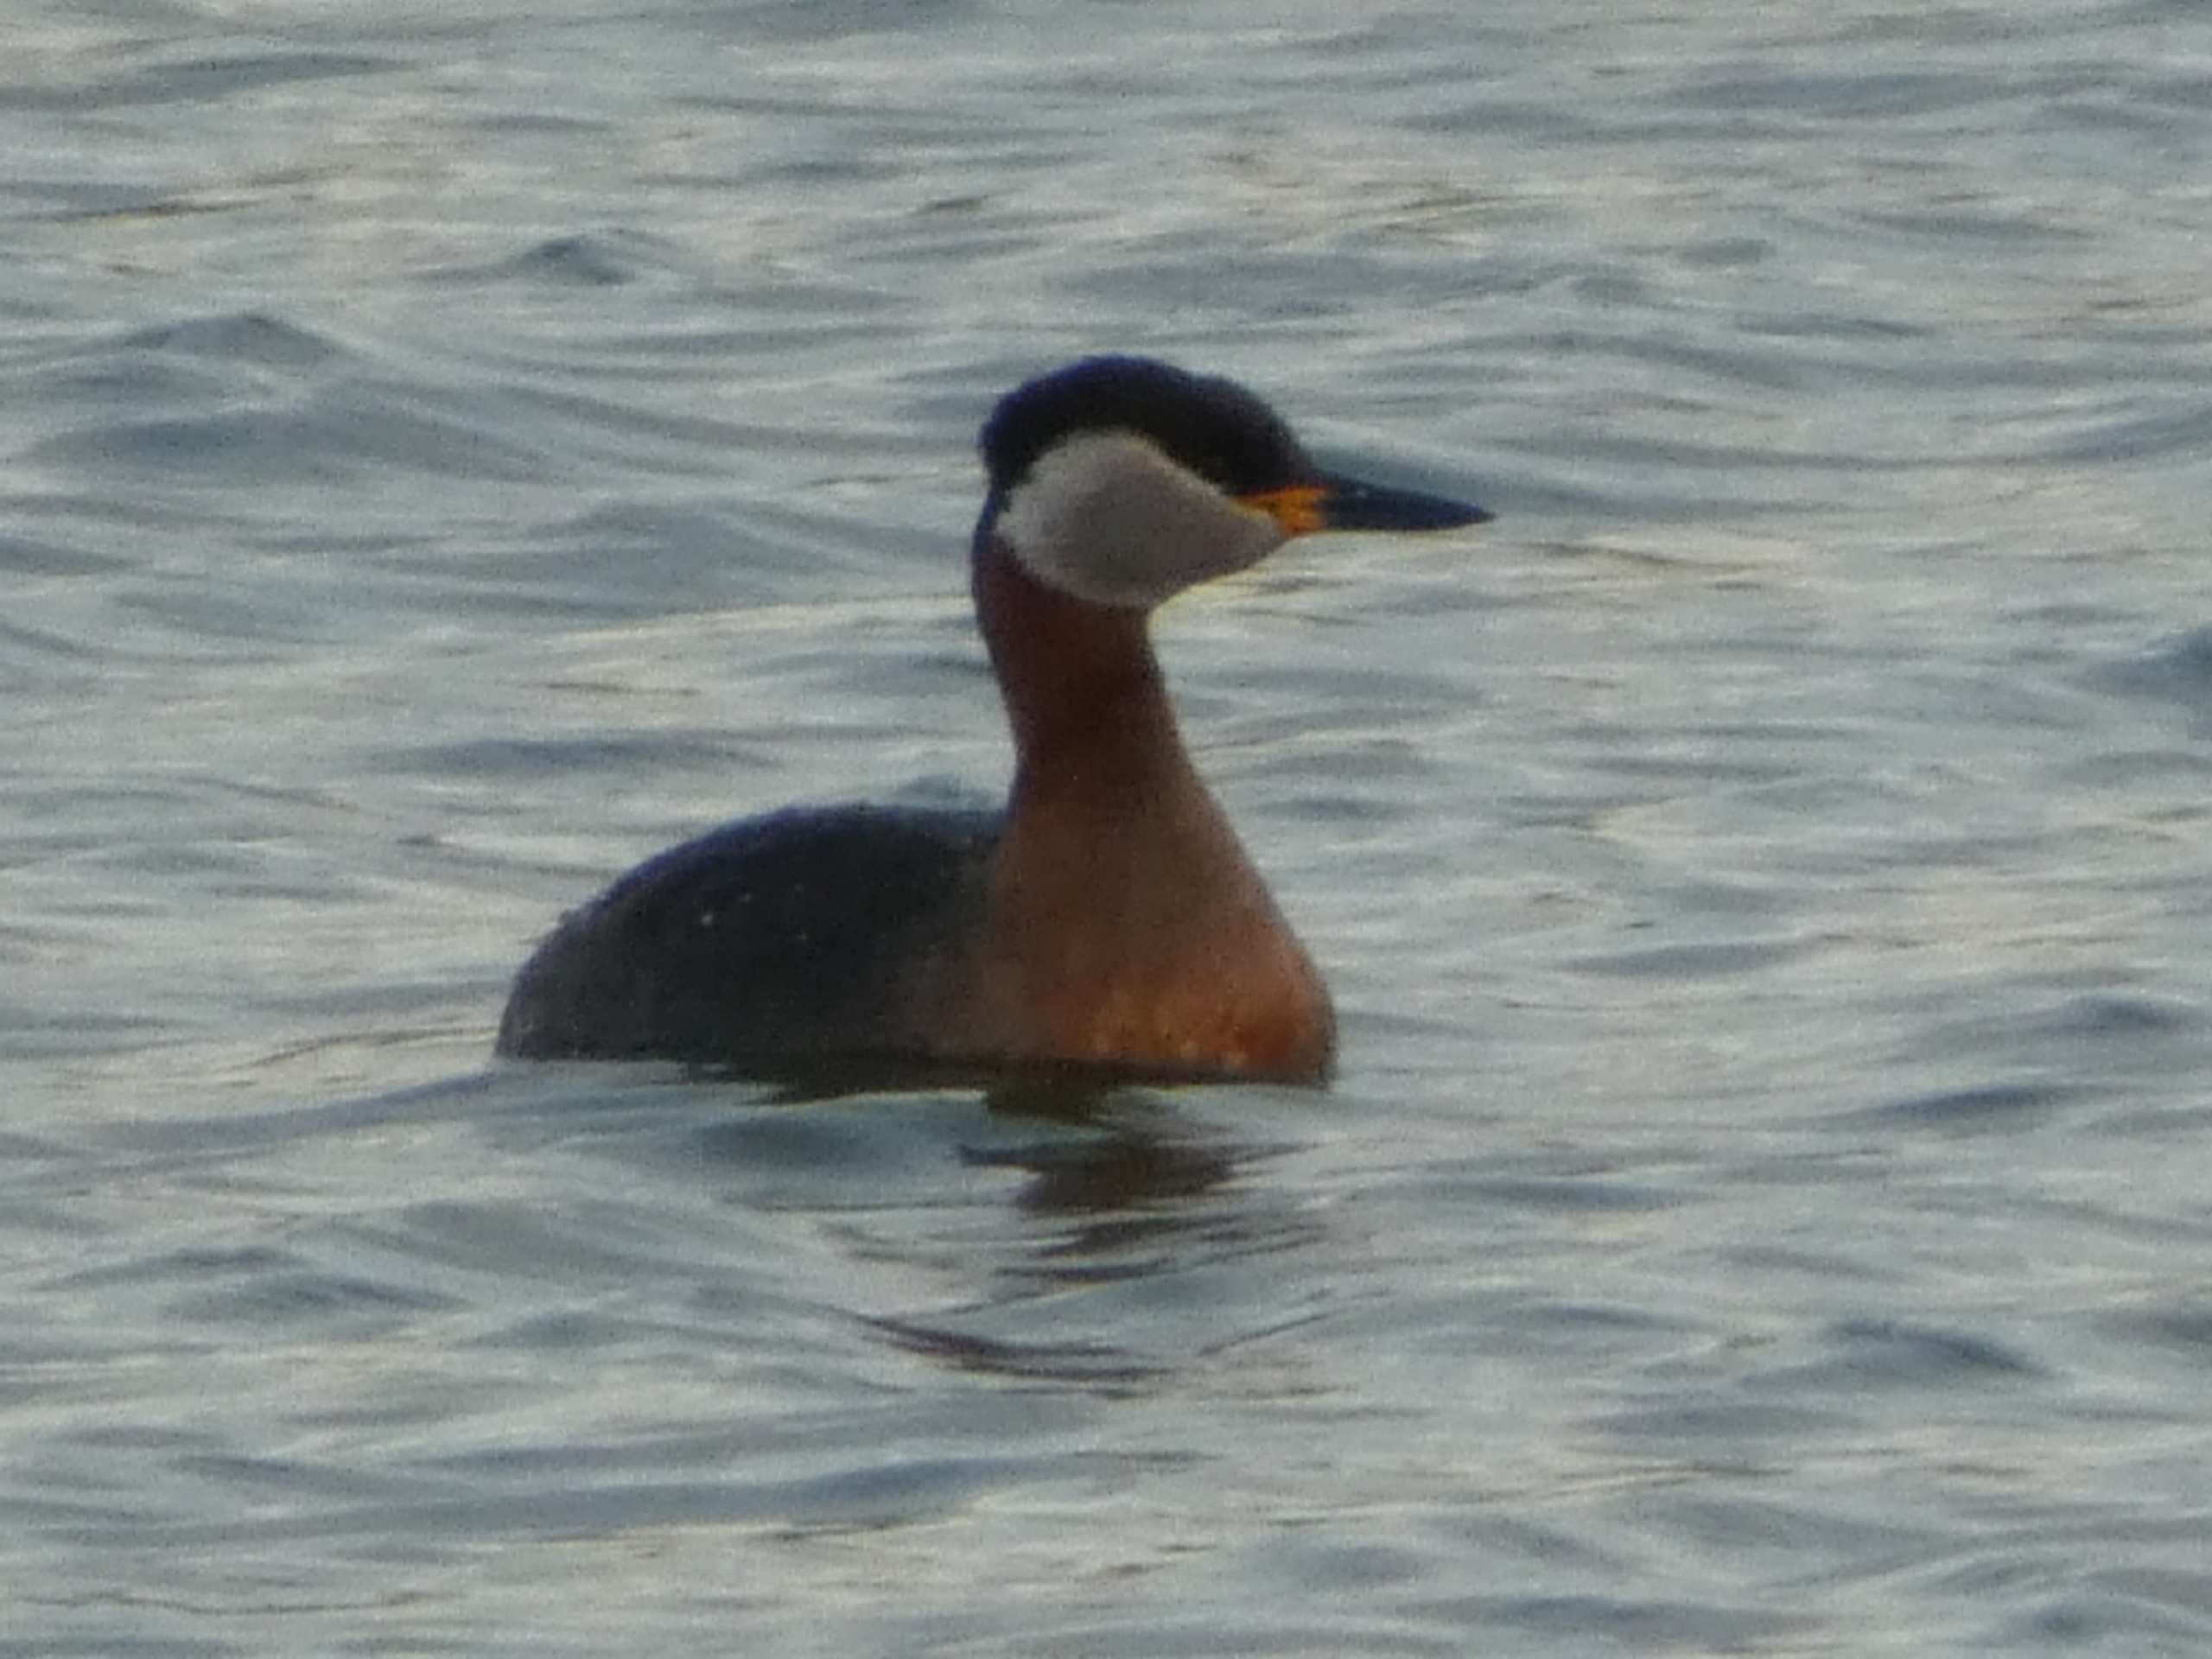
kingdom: Animalia
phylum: Chordata
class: Aves
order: Podicipediformes
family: Podicipedidae
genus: Podiceps
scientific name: Podiceps grisegena
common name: Gråstrubet lappedykker
